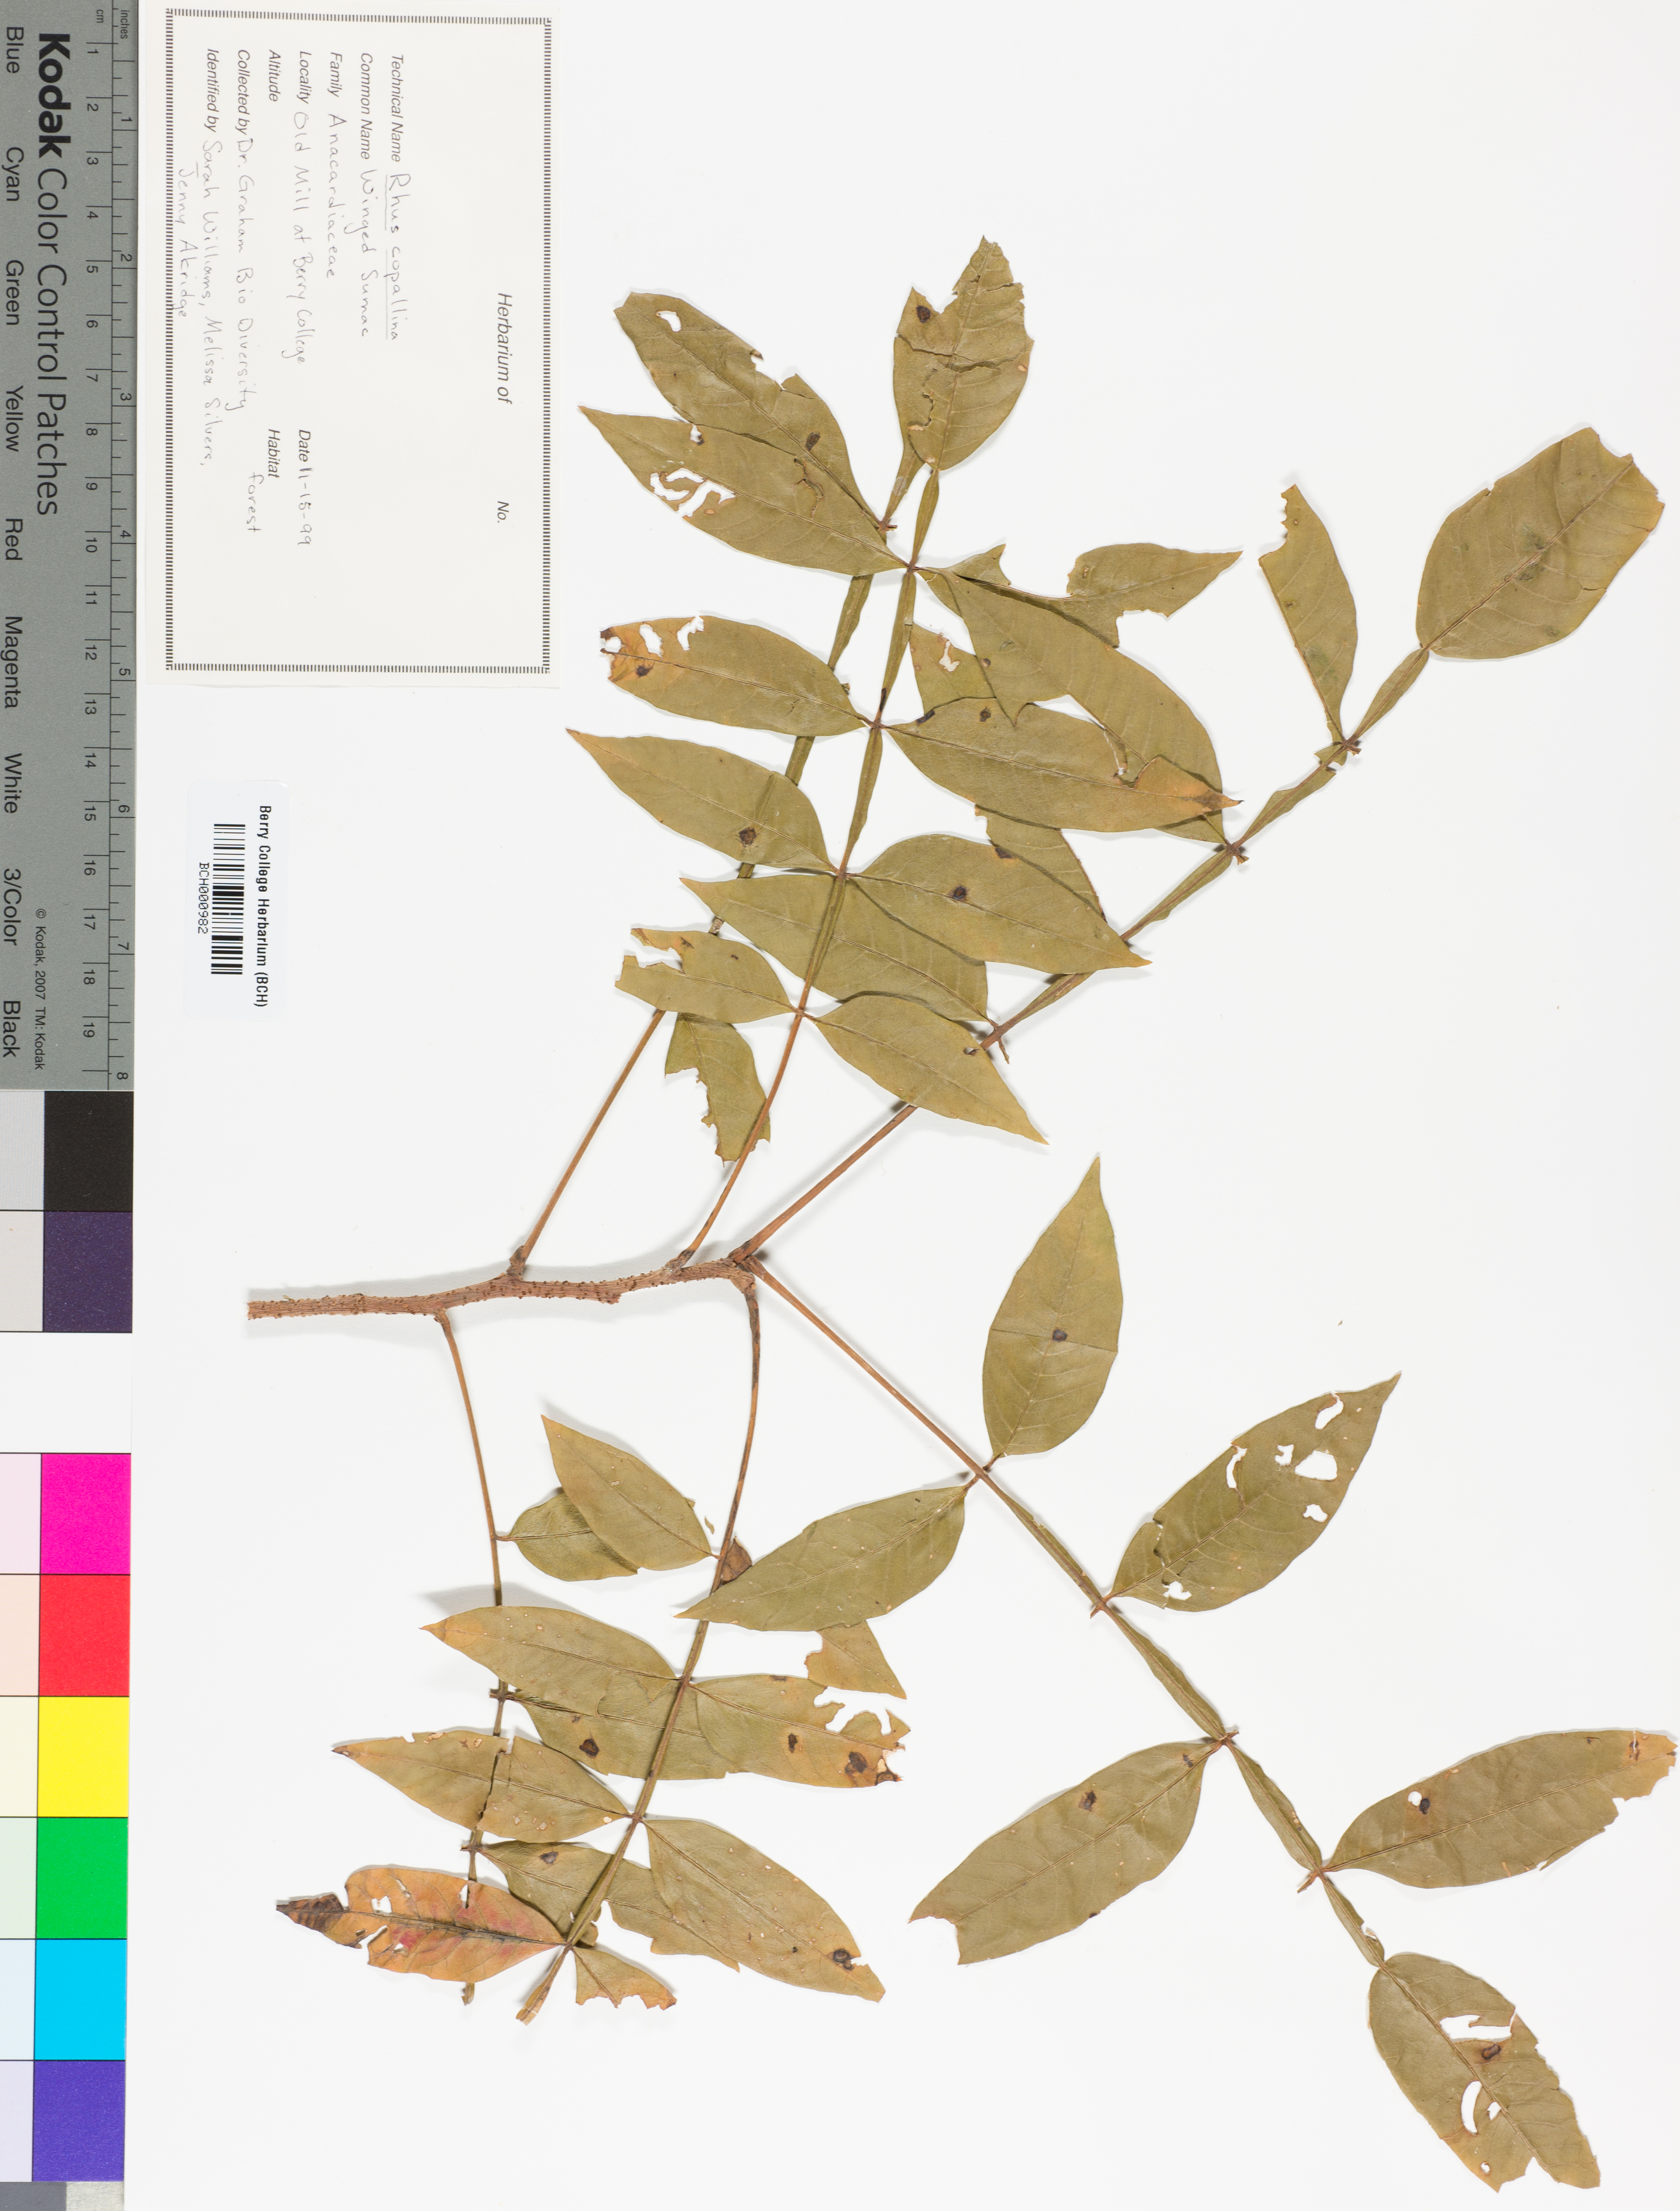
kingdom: Plantae
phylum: Tracheophyta
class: Magnoliopsida
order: Lamiales
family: Acanthaceae
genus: Adhatoda
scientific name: Adhatoda
